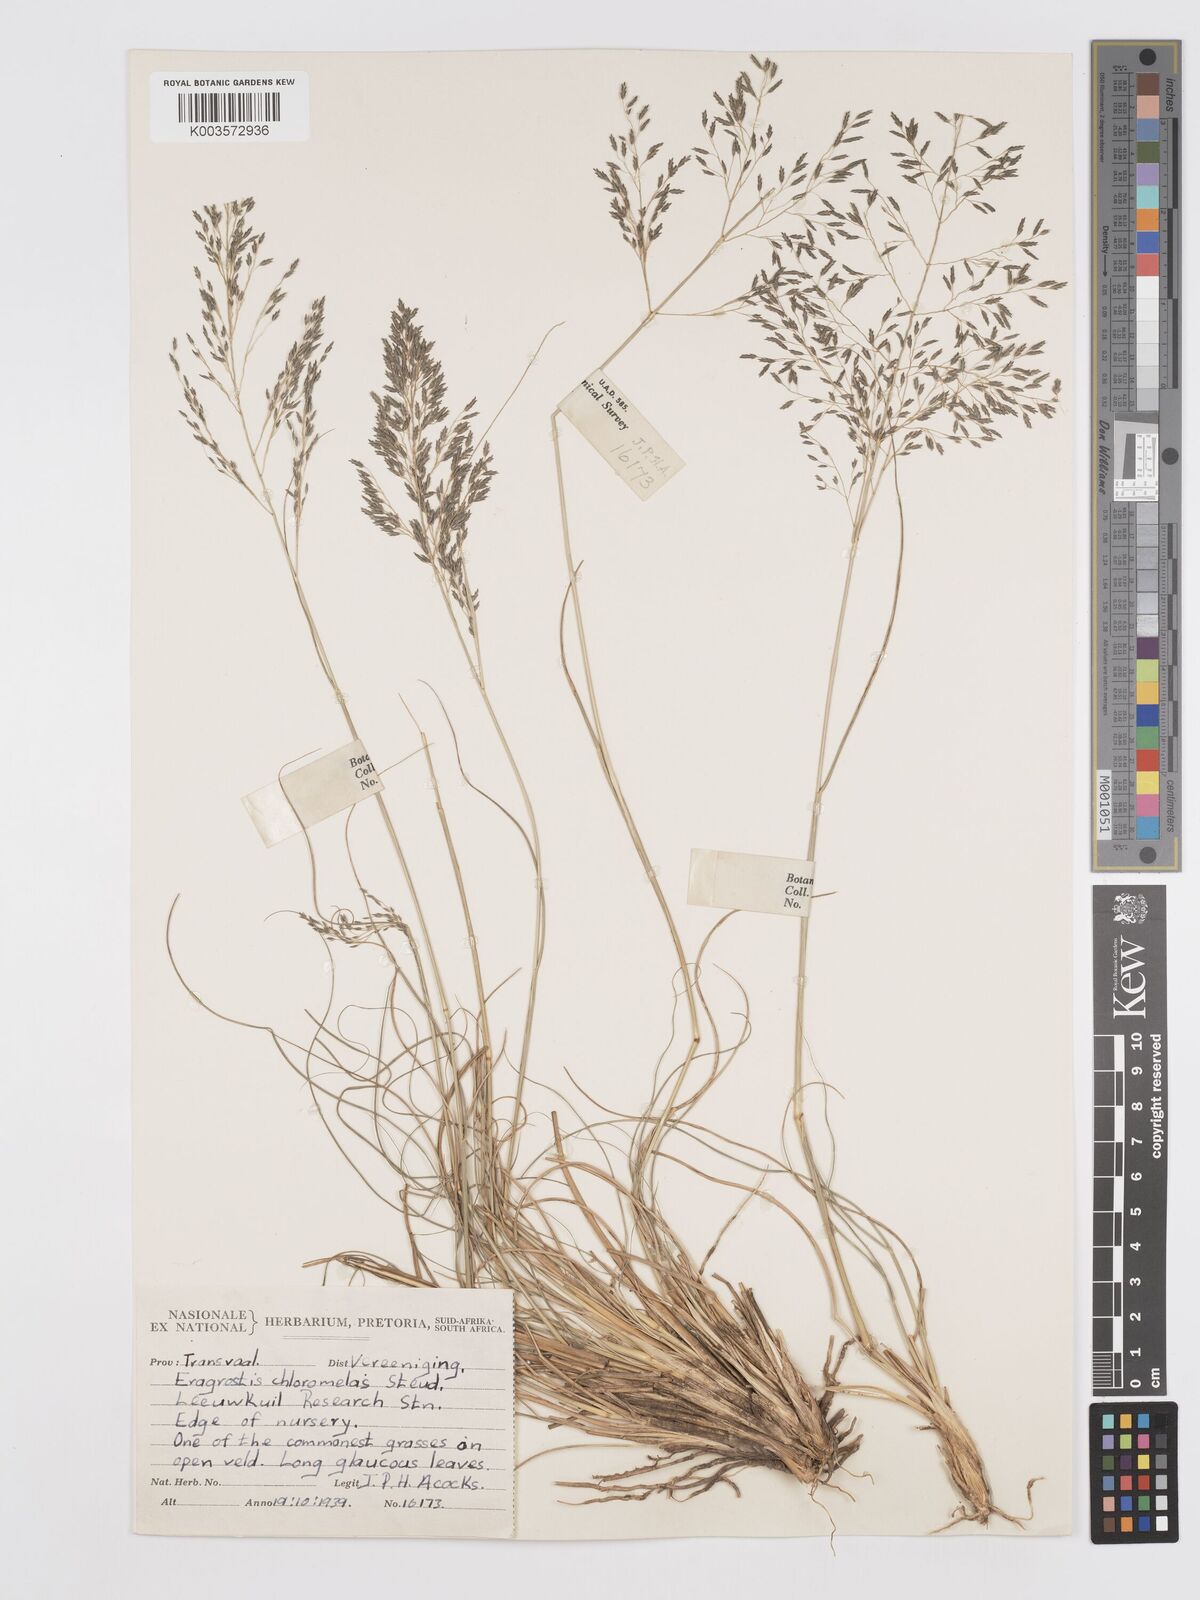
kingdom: Plantae
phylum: Tracheophyta
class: Liliopsida
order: Poales
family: Poaceae
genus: Eragrostis
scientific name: Eragrostis curvula
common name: African love-grass
